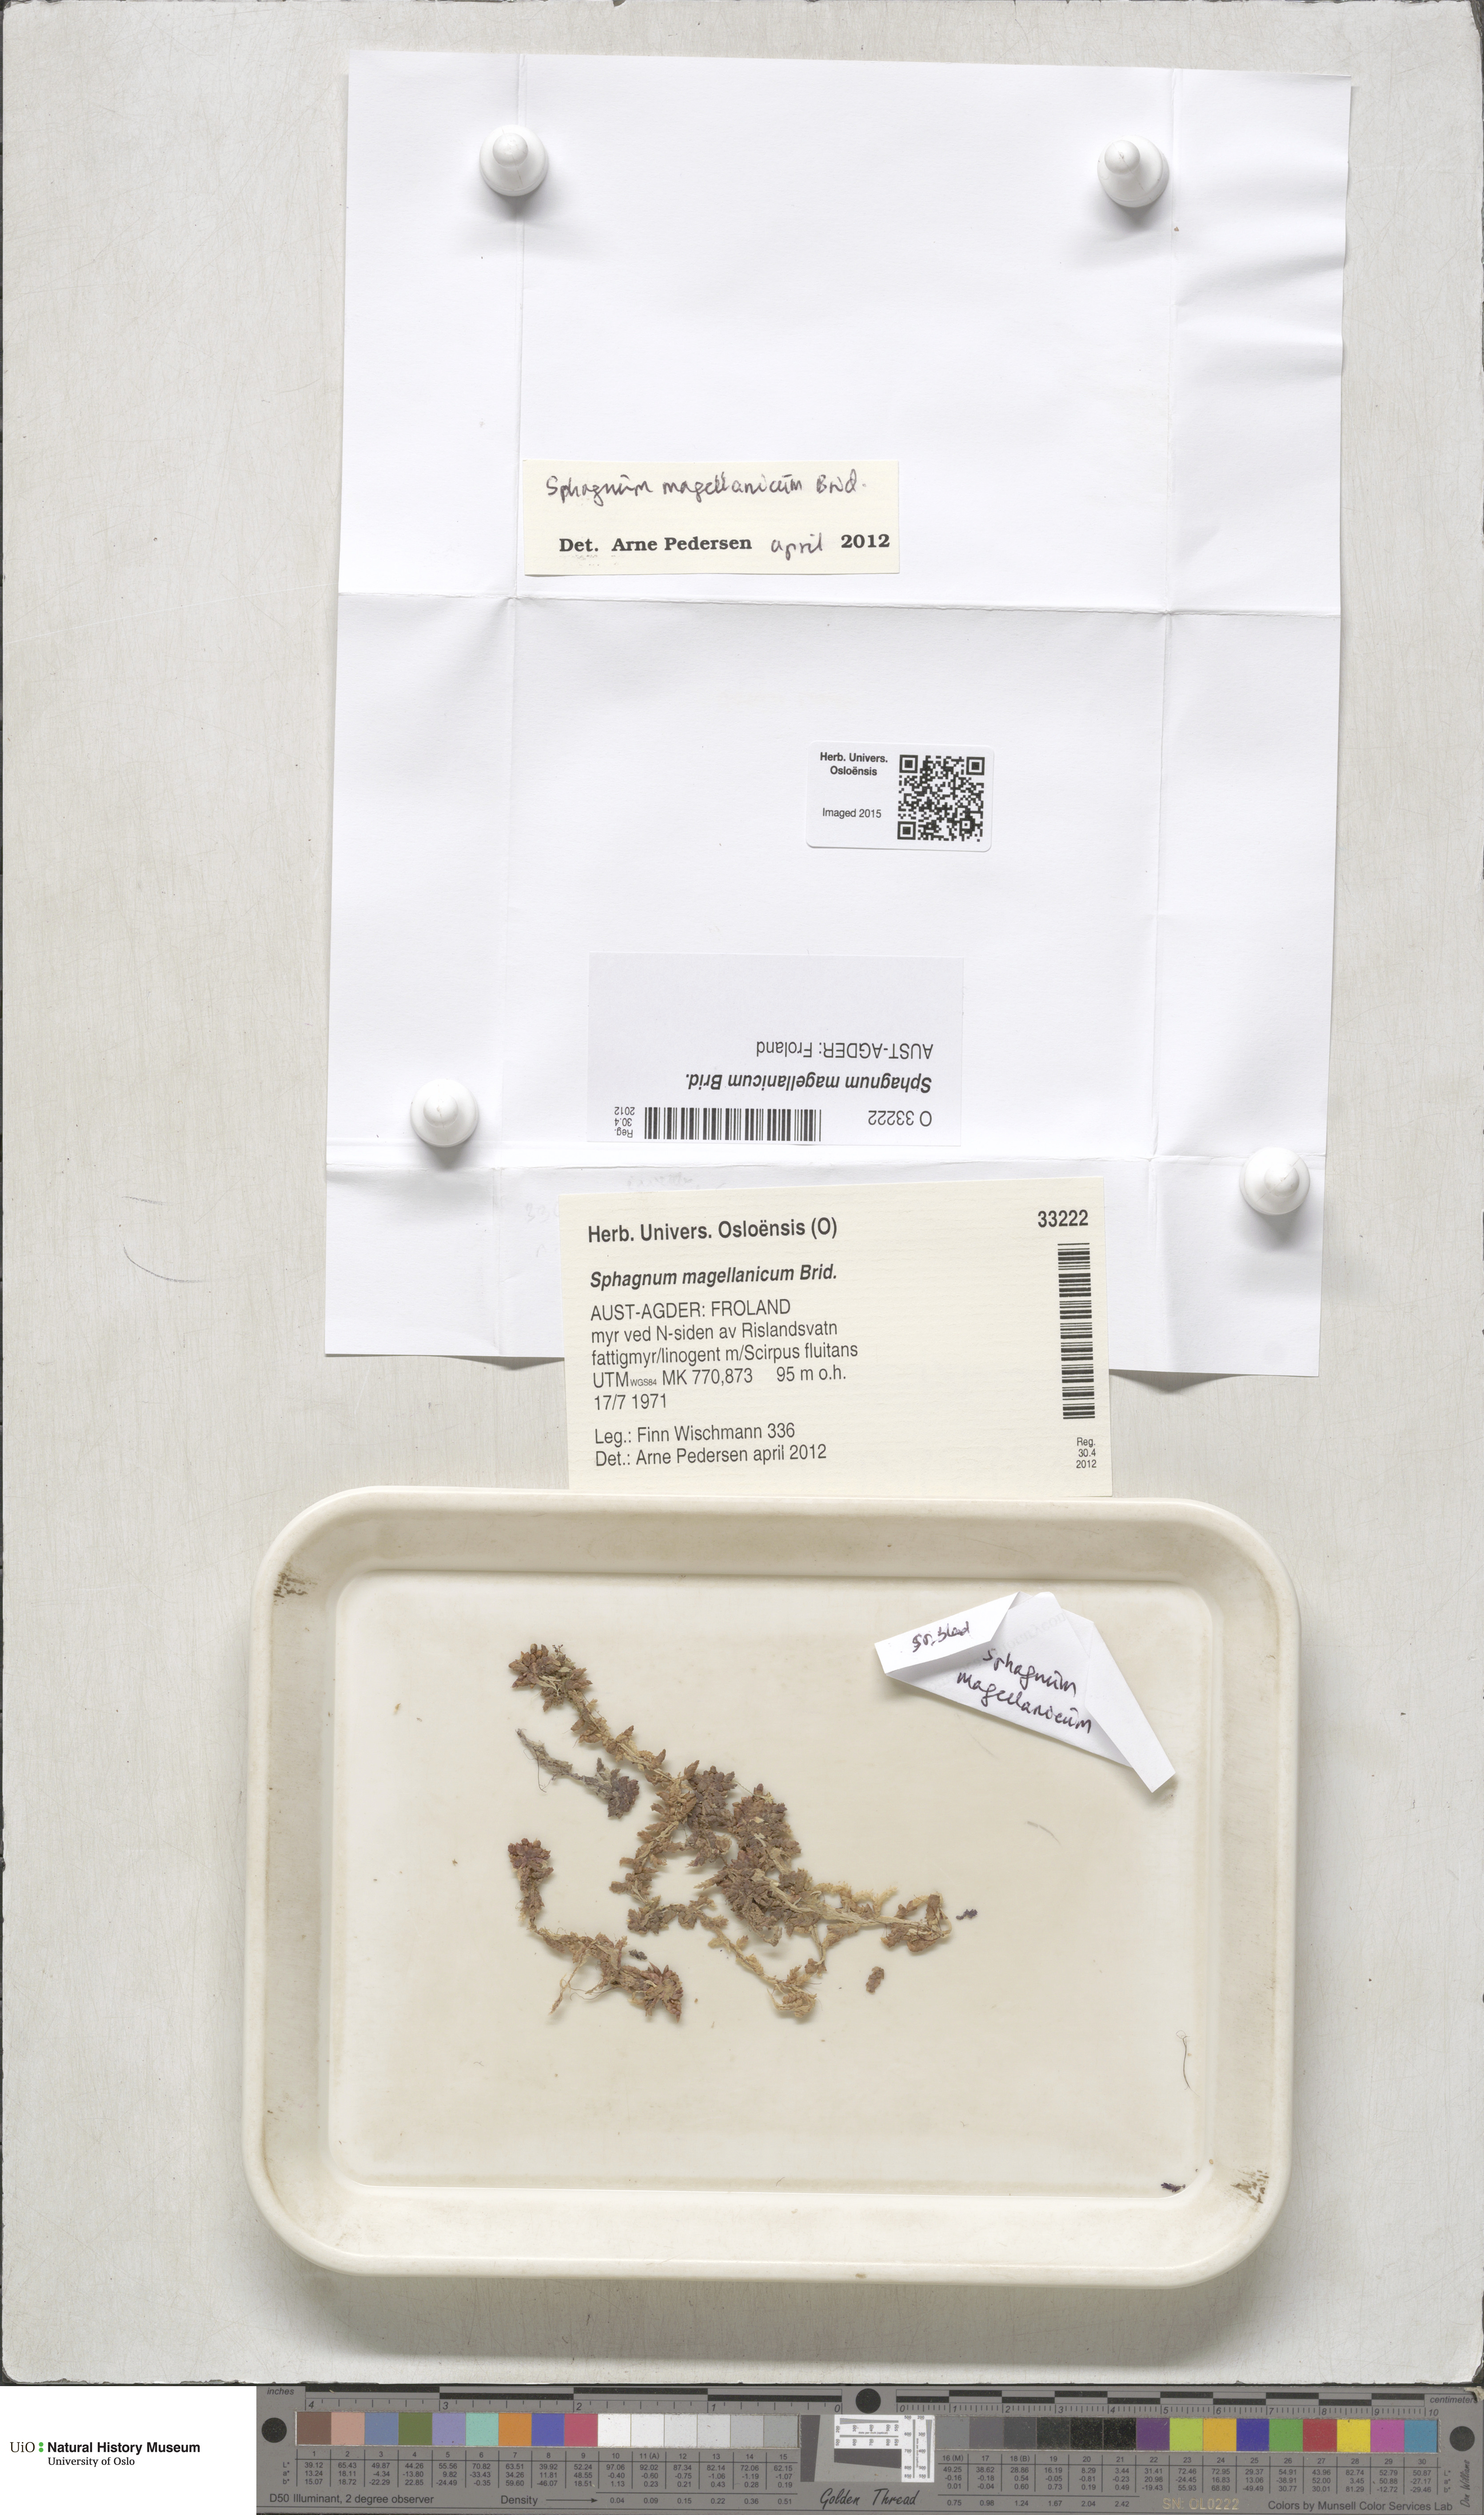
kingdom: Plantae
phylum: Bryophyta
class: Sphagnopsida
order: Sphagnales
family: Sphagnaceae
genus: Sphagnum
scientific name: Sphagnum magellanicum
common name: Magellan's peat moss
